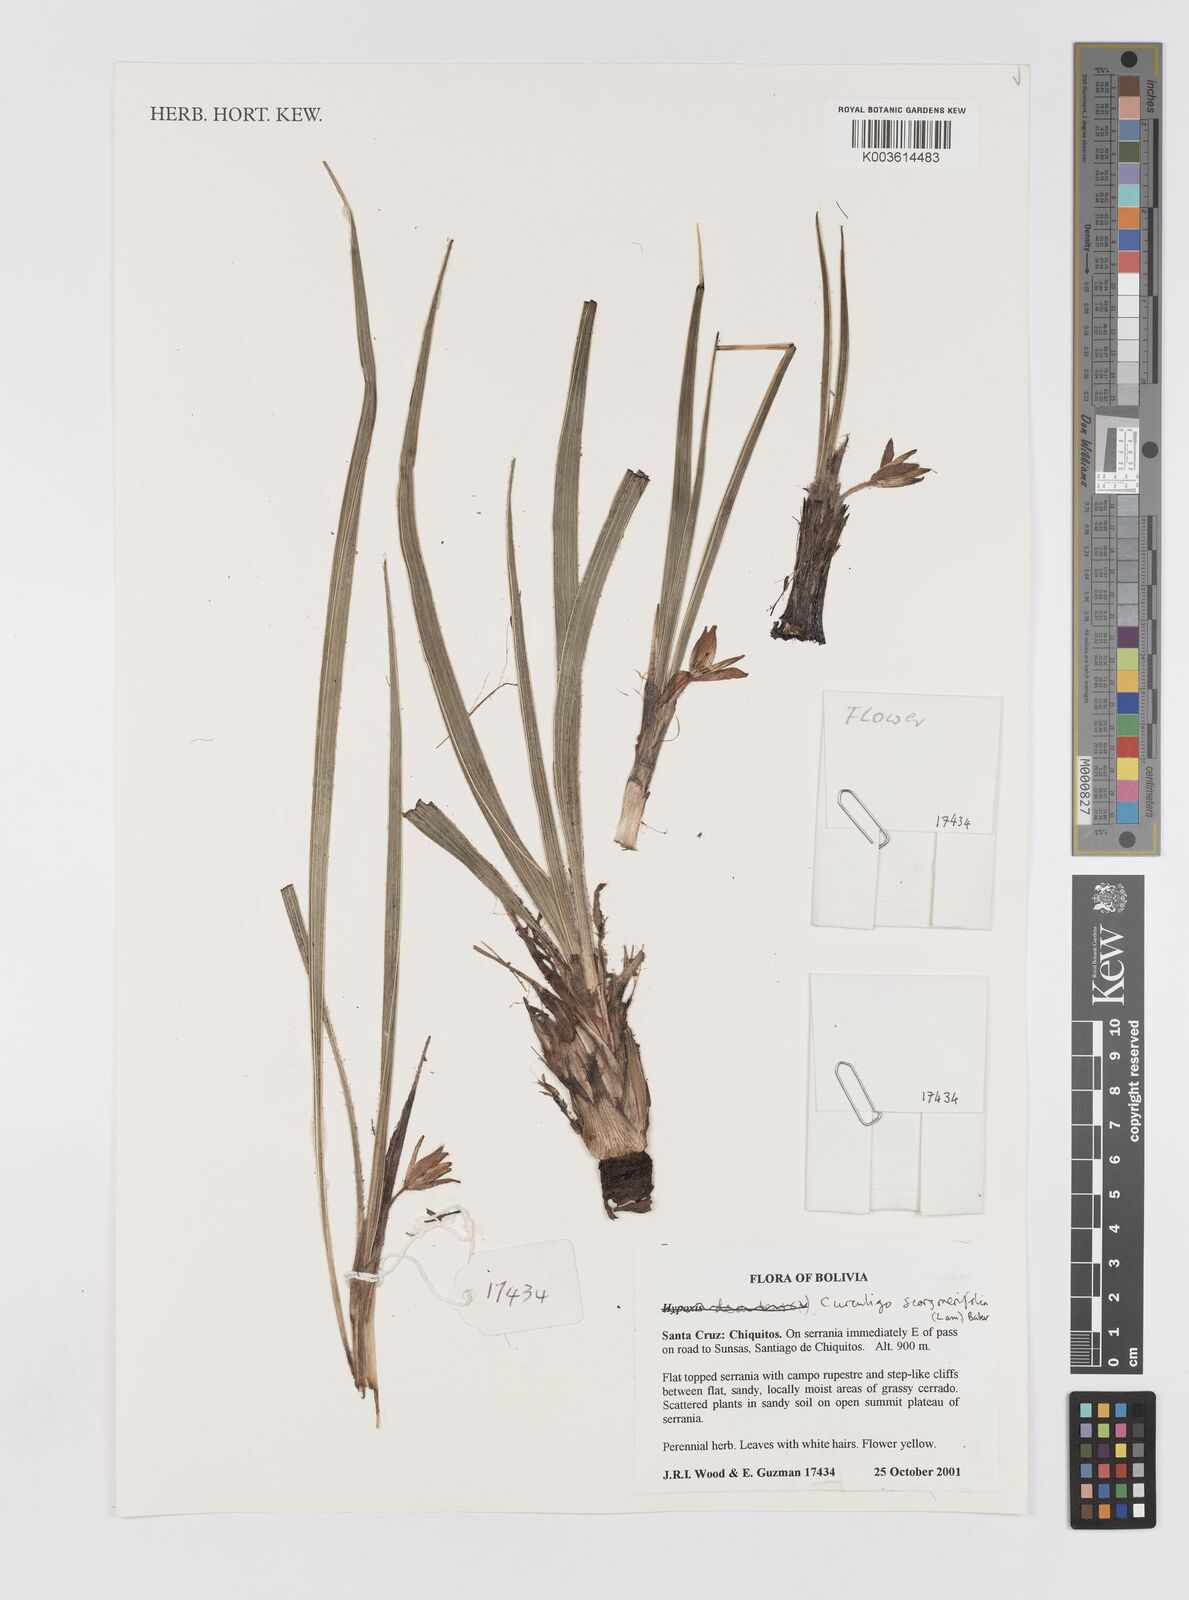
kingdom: Plantae
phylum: Tracheophyta
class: Liliopsida
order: Asparagales
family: Hypoxidaceae
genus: Curculigo
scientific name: Curculigo scorzonerifolia
